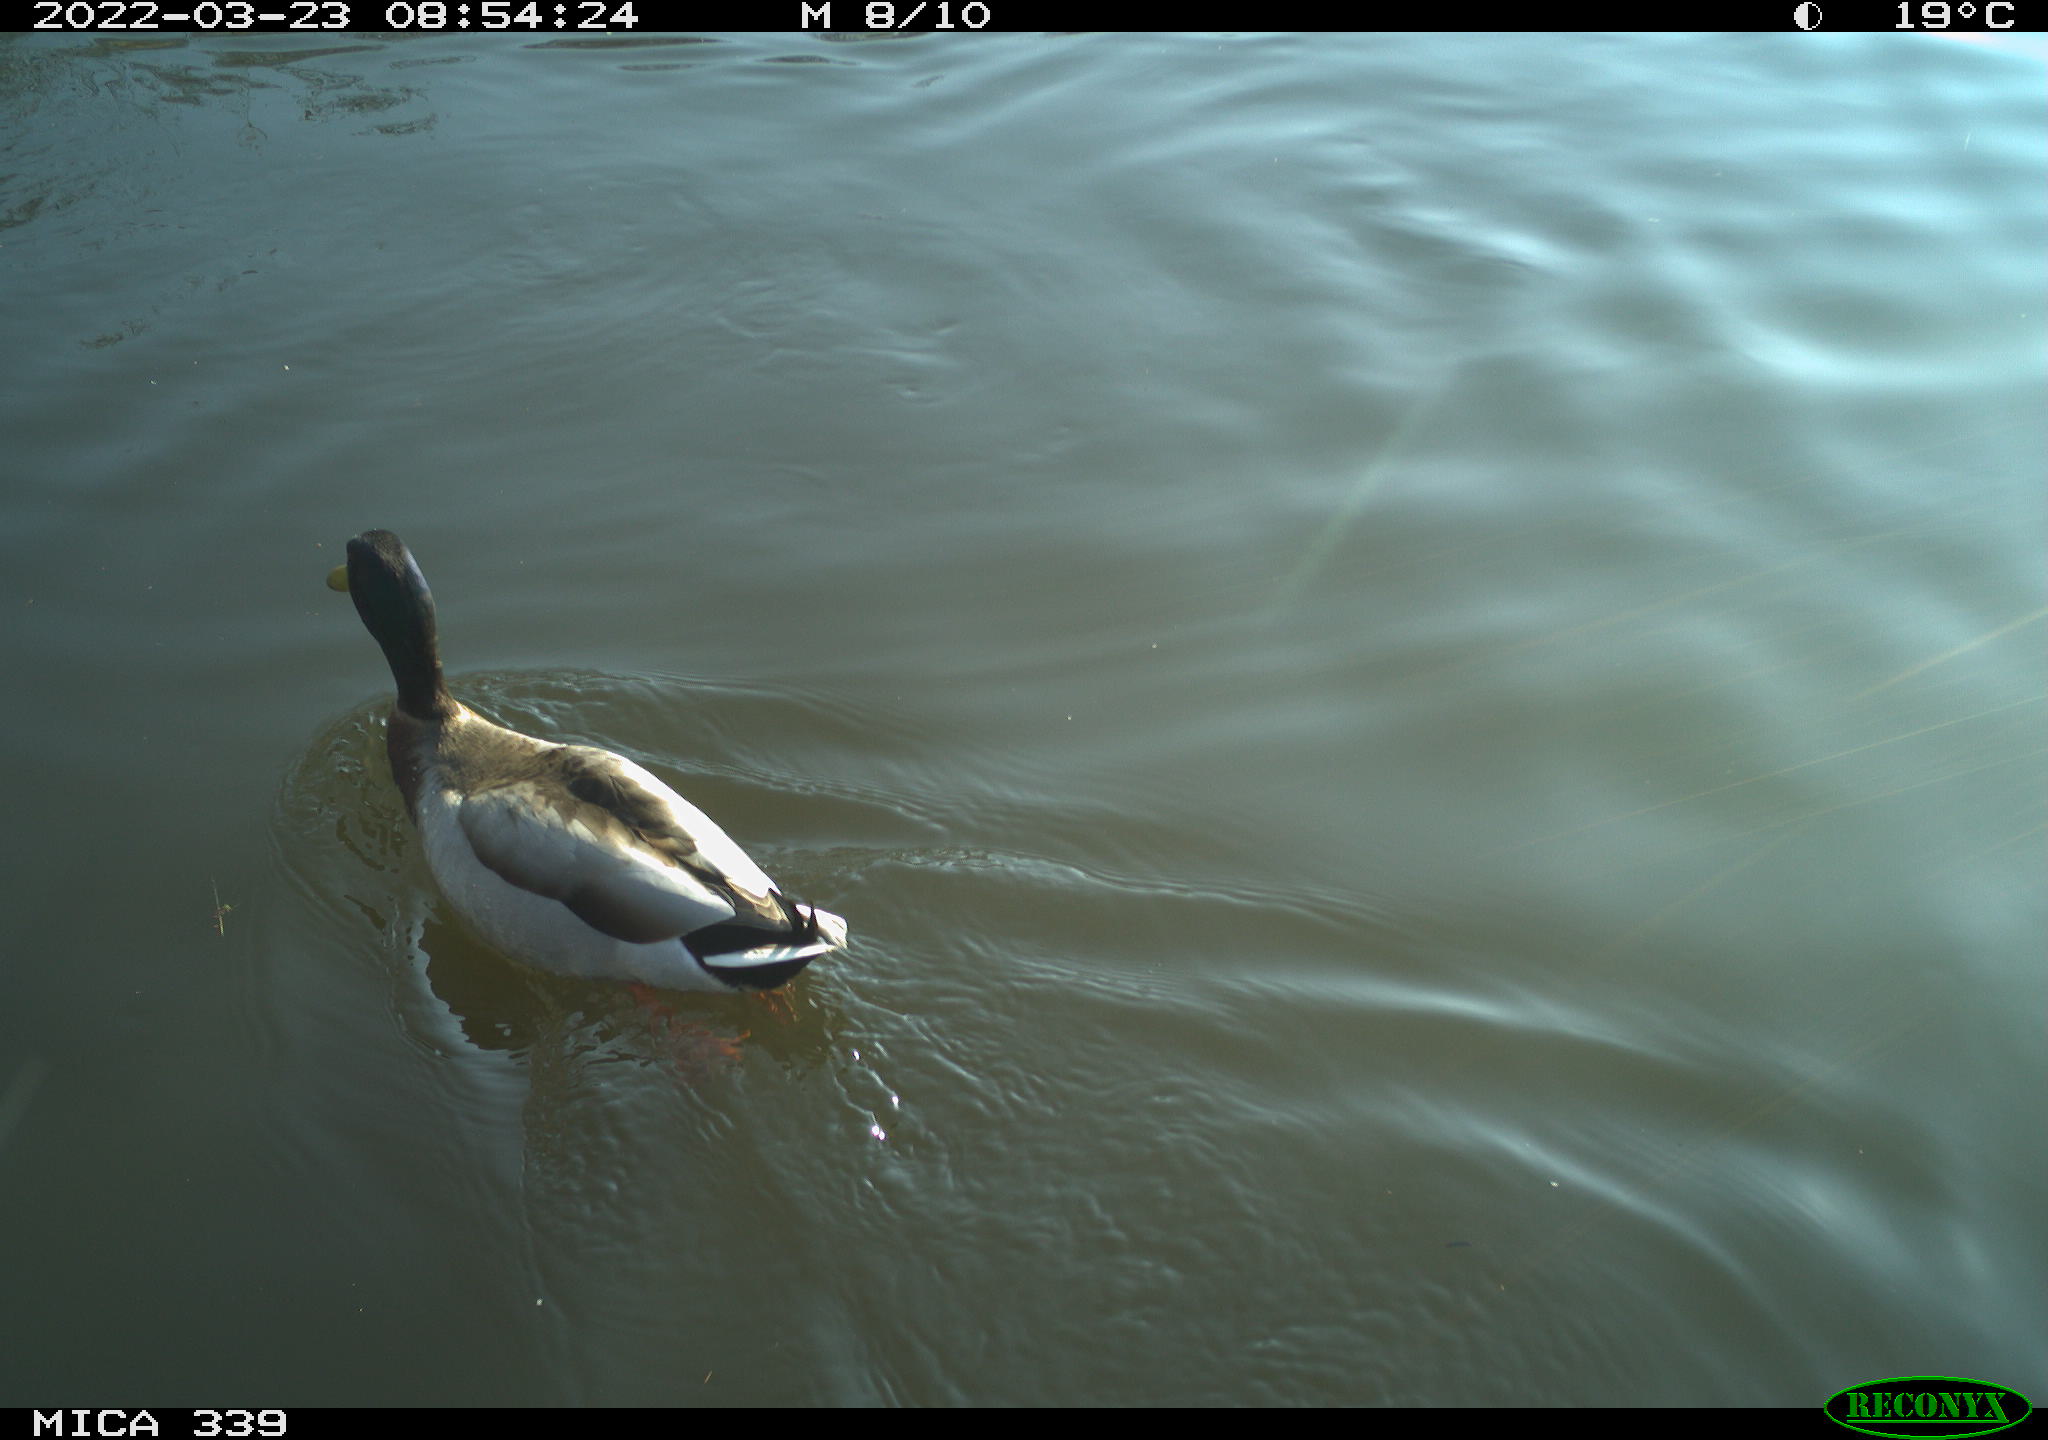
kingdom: Animalia
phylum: Chordata
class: Aves
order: Anseriformes
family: Anatidae
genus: Anas
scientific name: Anas platyrhynchos
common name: Mallard
